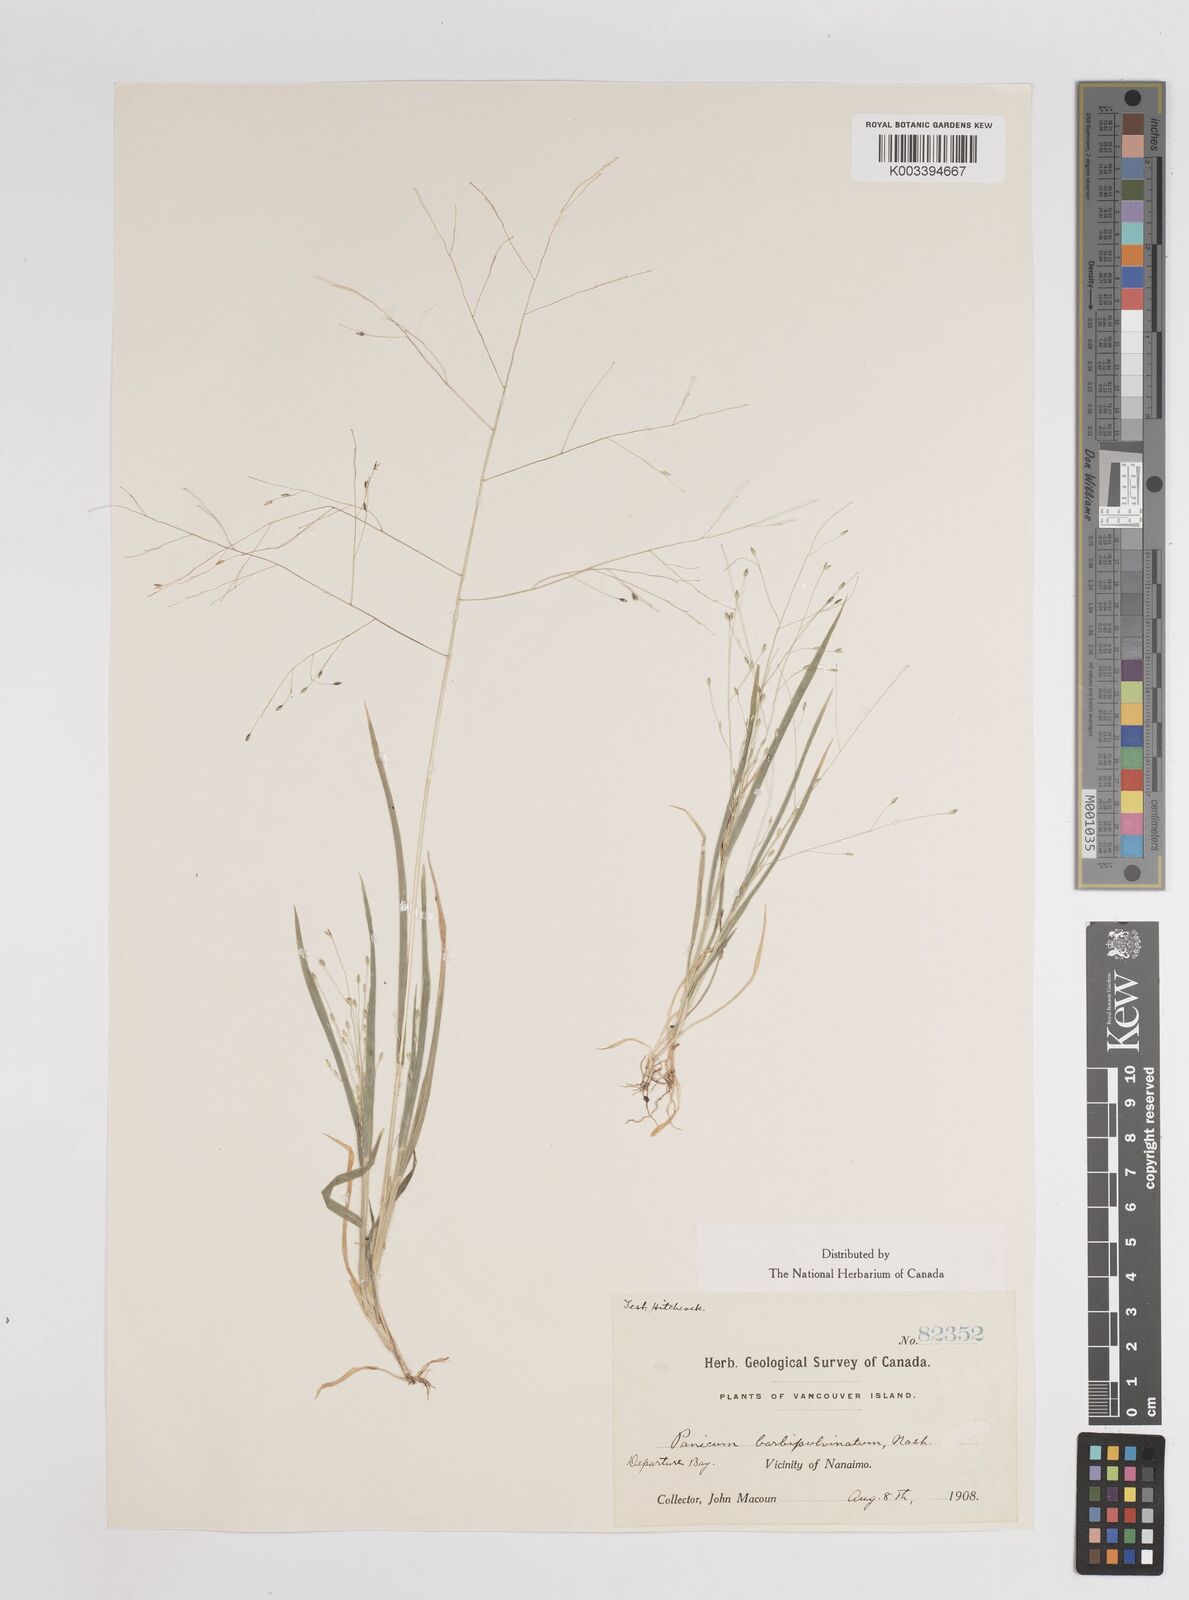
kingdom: Plantae
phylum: Tracheophyta
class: Liliopsida
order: Poales
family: Poaceae
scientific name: Poaceae
